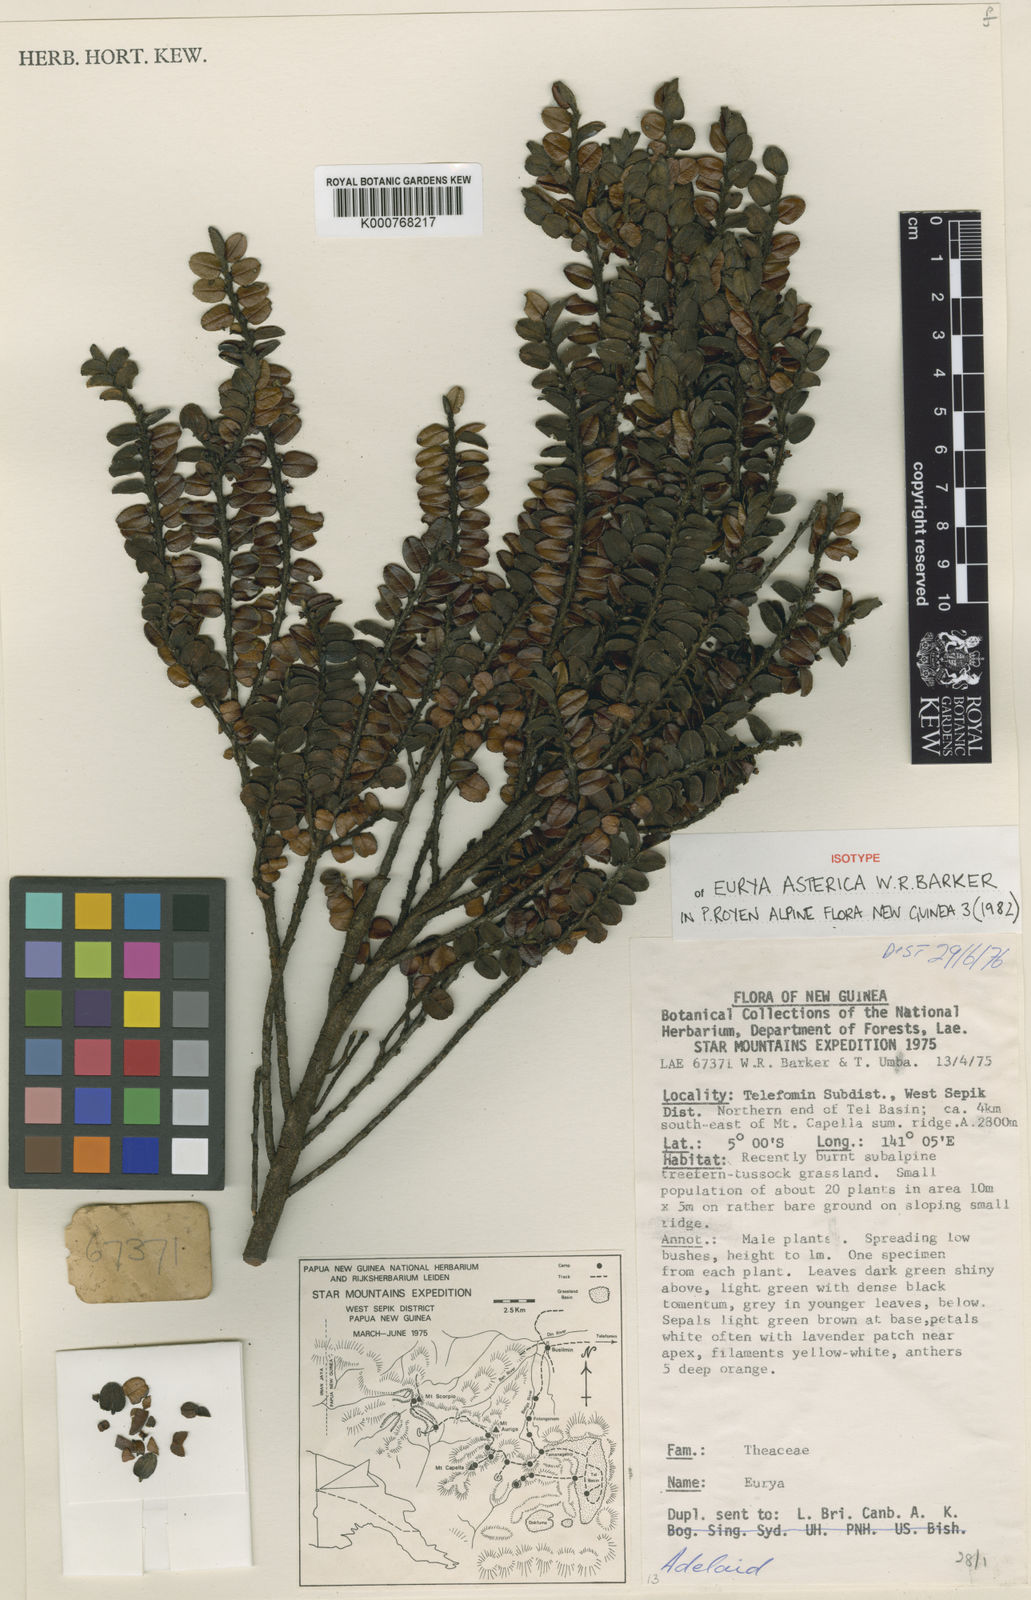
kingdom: Plantae
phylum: Tracheophyta
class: Magnoliopsida
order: Ericales
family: Pentaphylacaceae
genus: Eurya
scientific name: Eurya asterica
